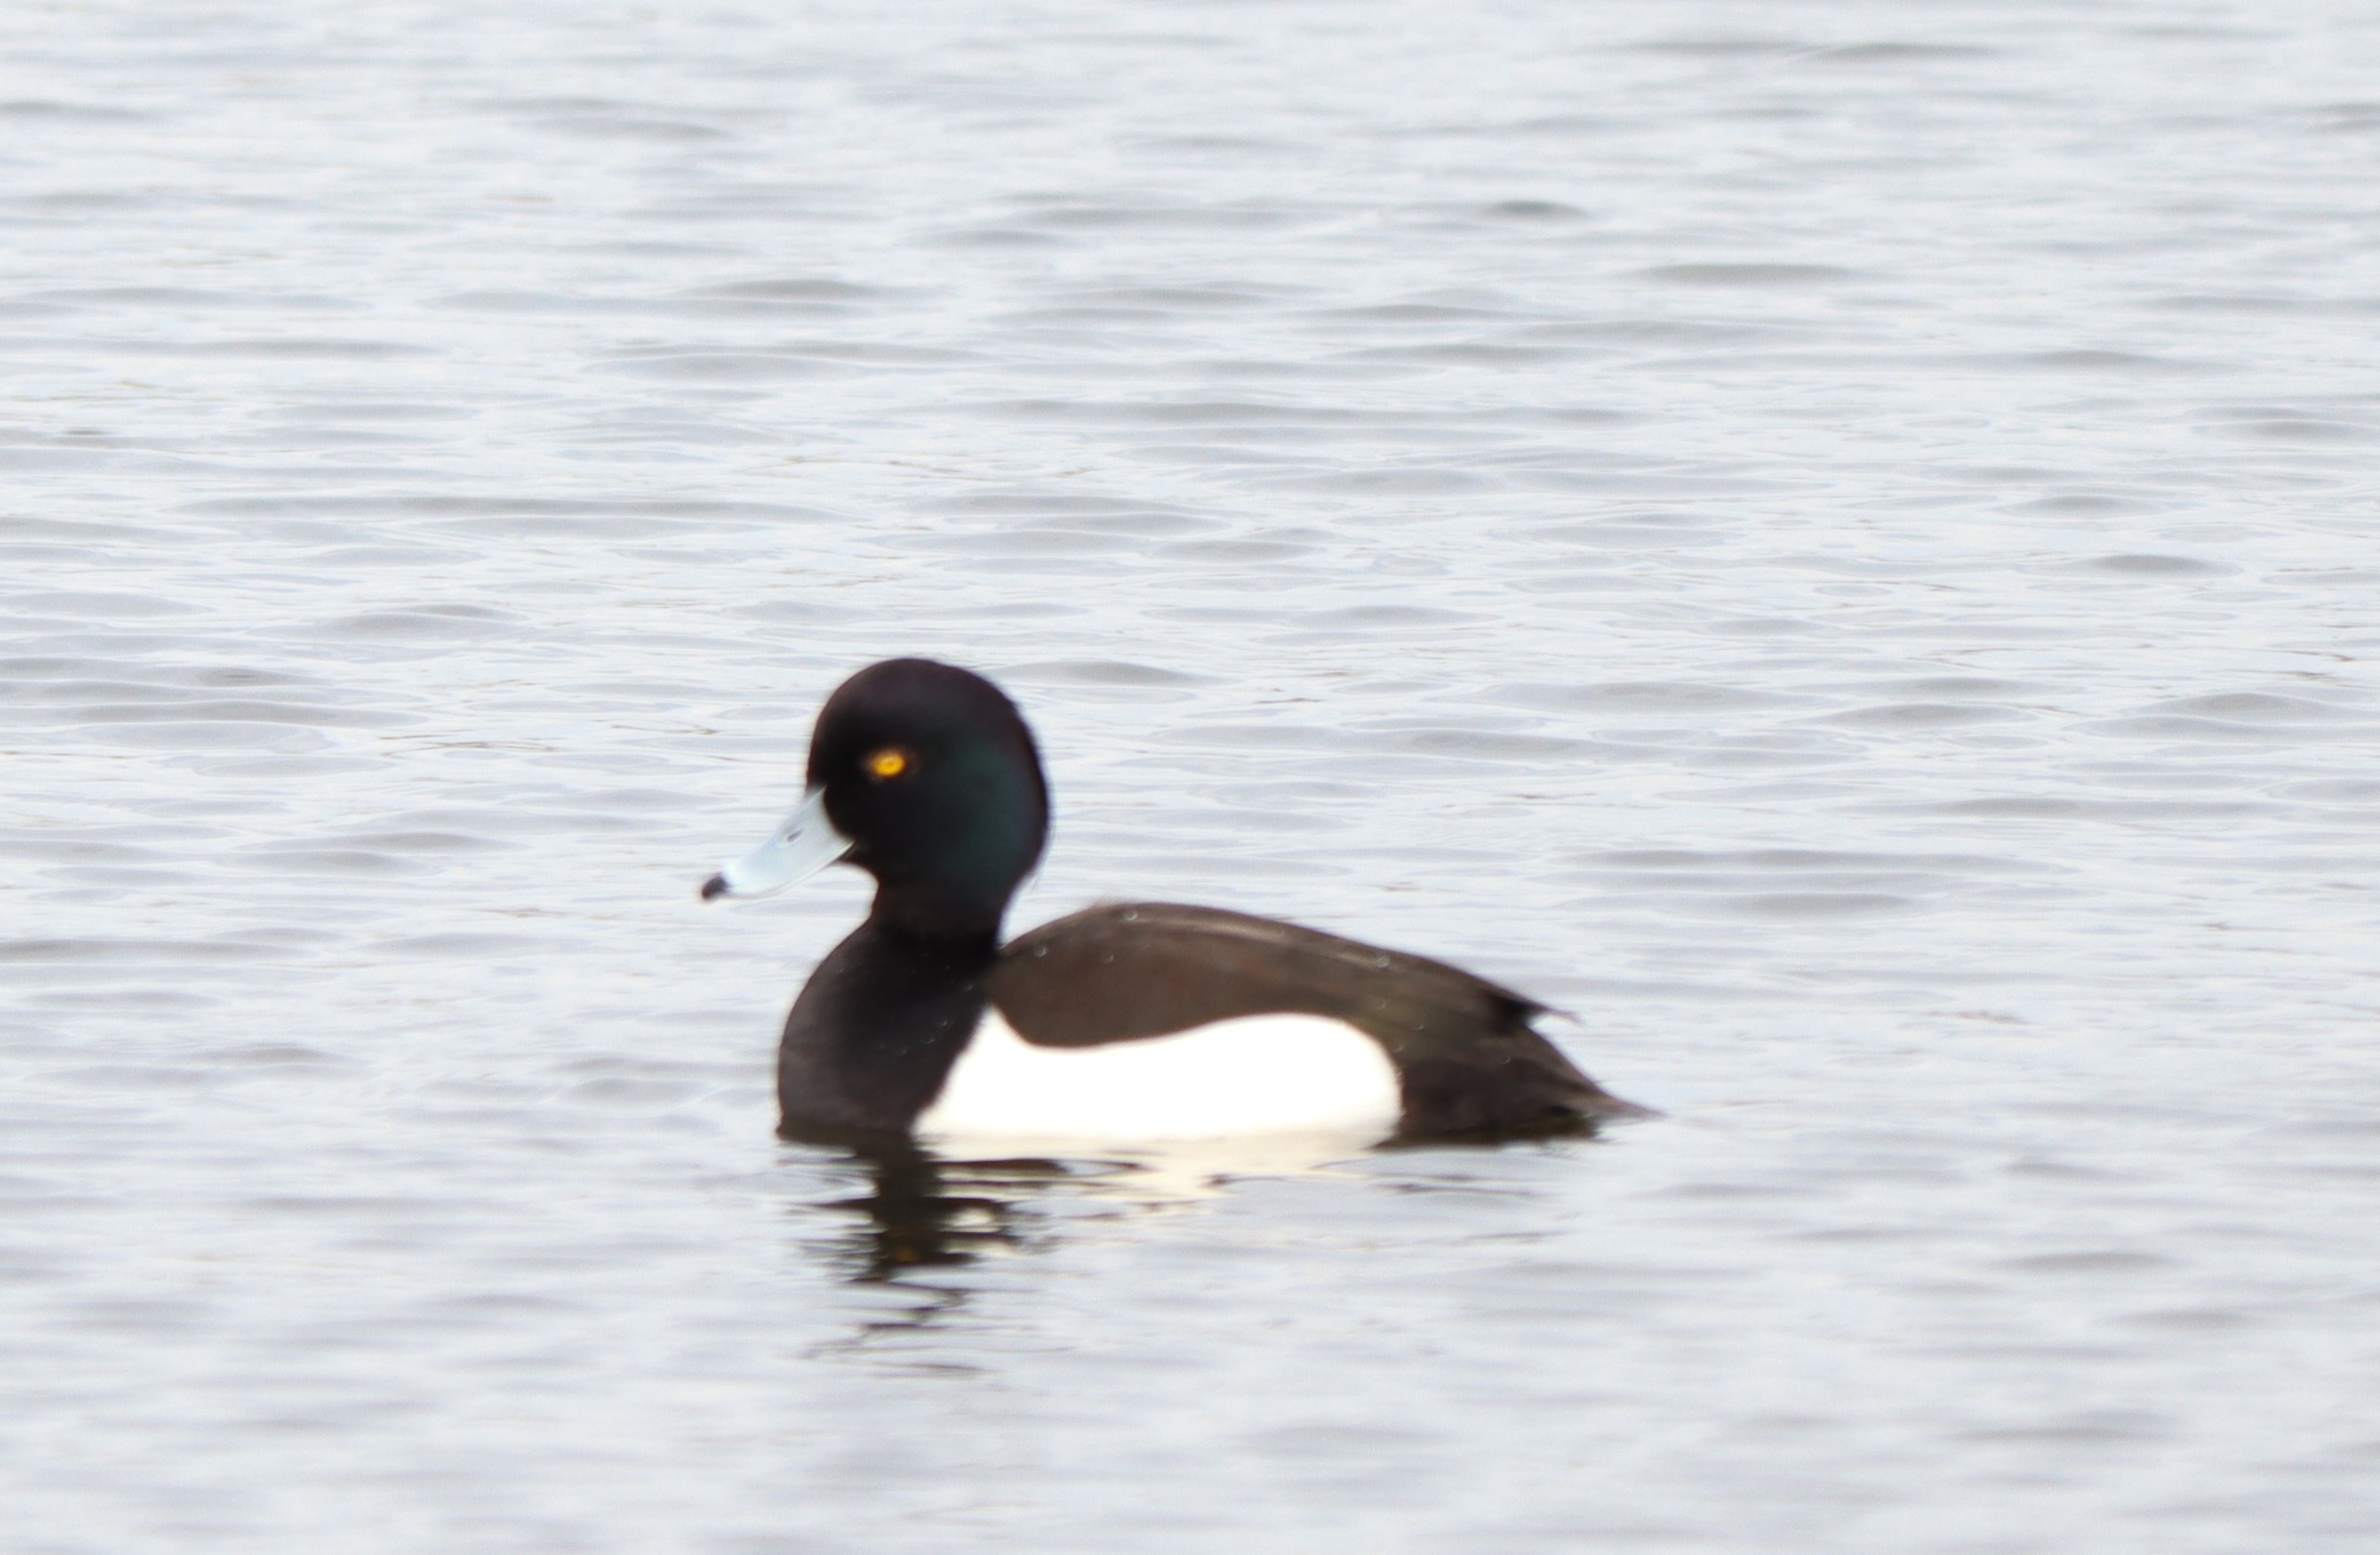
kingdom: Animalia
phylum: Chordata
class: Aves
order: Anseriformes
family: Anatidae
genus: Aythya
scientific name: Aythya fuligula
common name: Troldand
